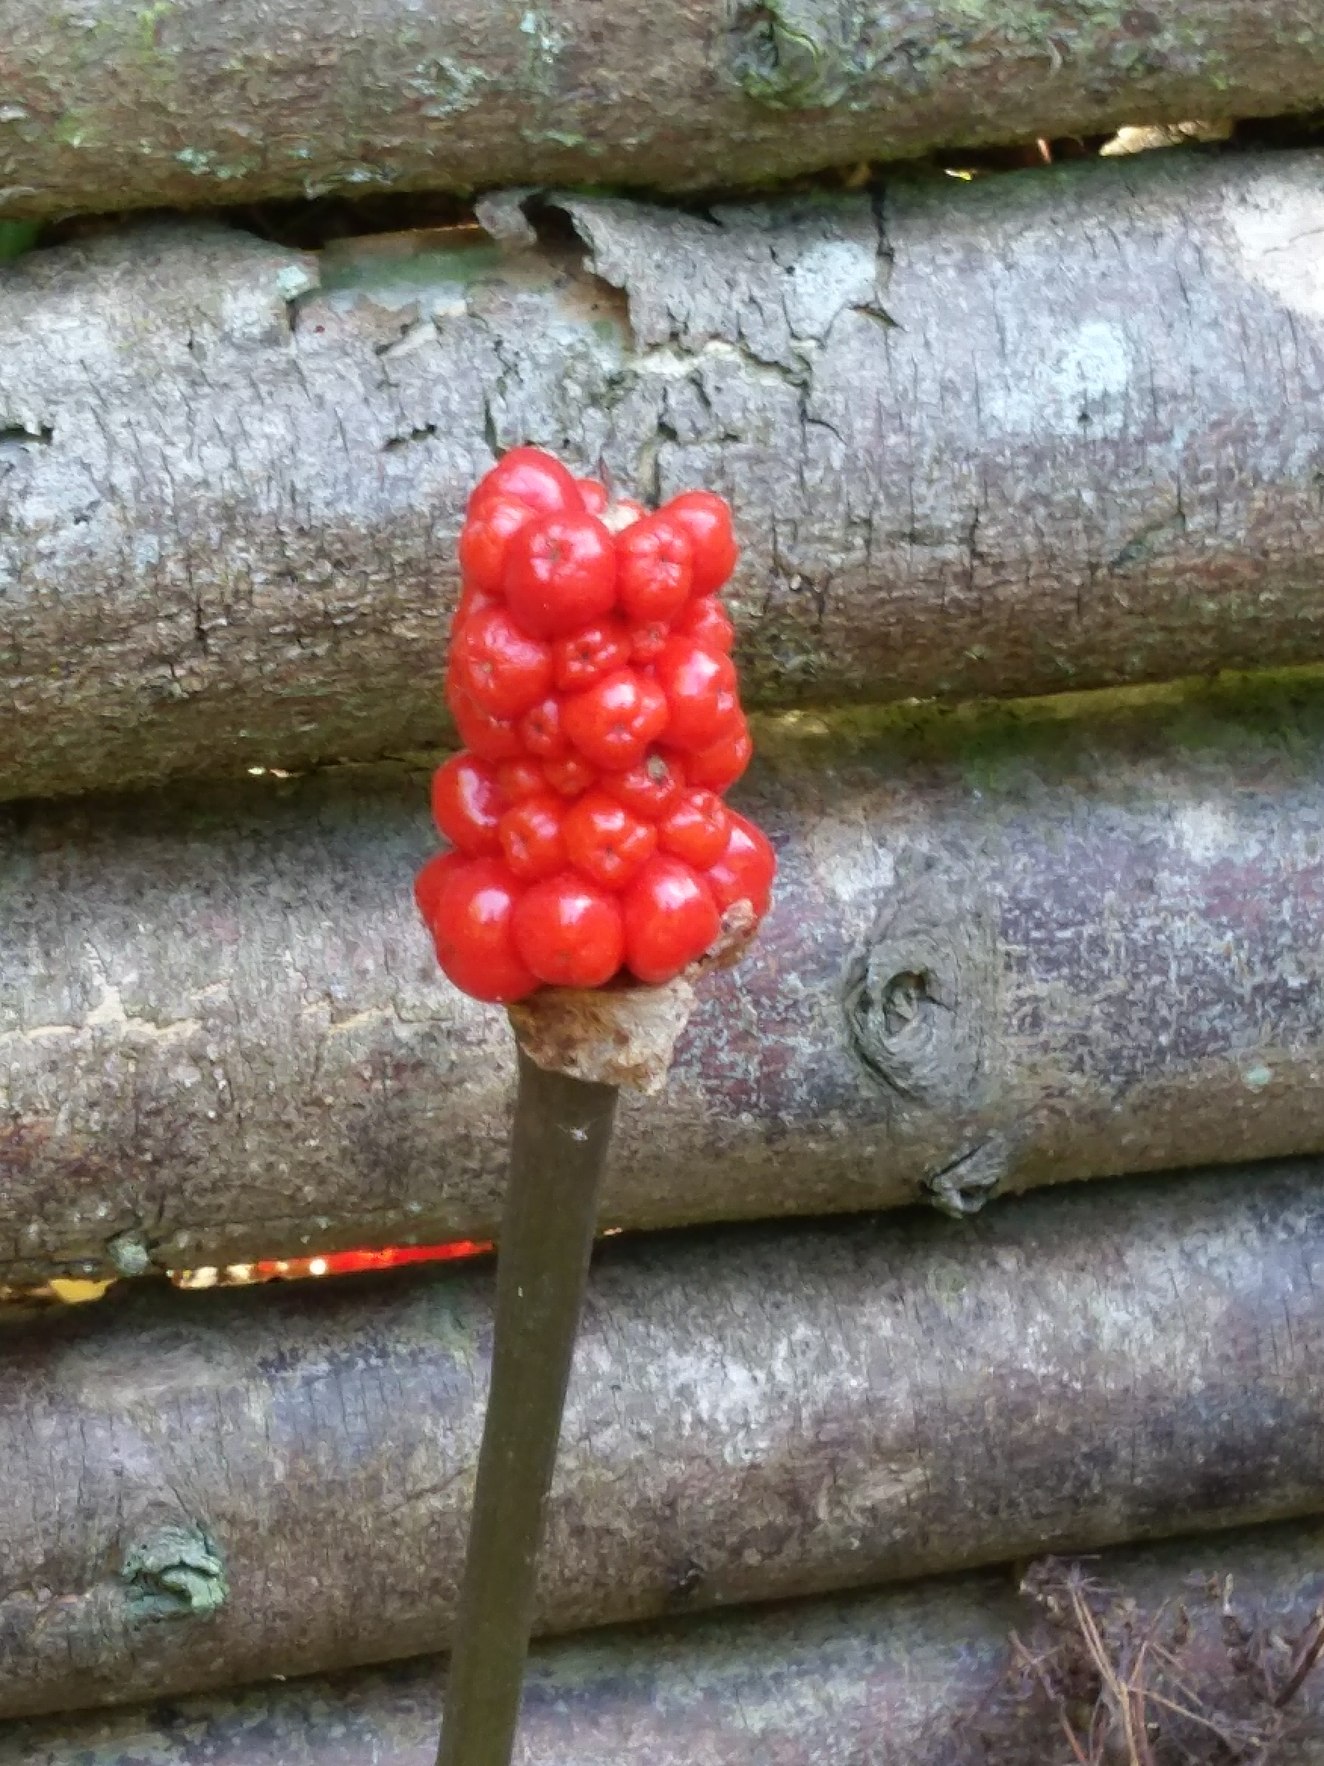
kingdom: Plantae
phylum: Tracheophyta
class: Liliopsida
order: Alismatales
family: Araceae
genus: Arum
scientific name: Arum
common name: Arumslægten
